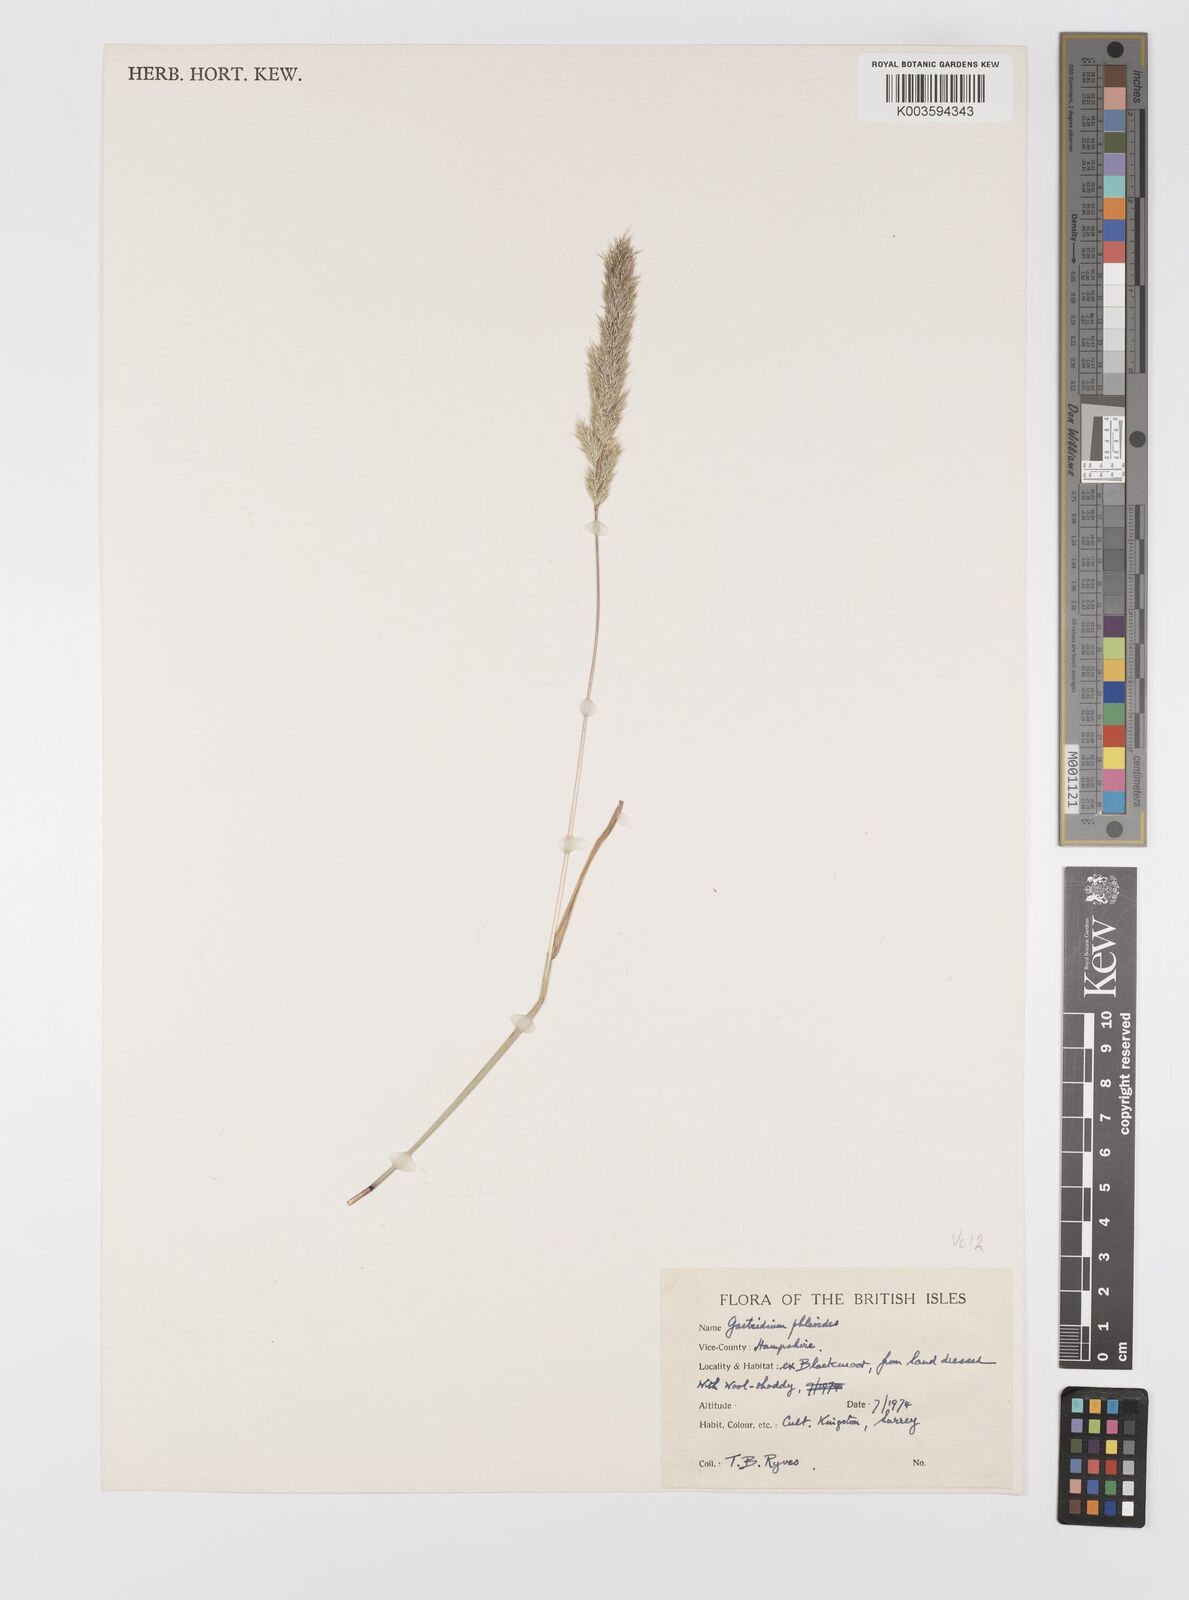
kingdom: Plantae
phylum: Tracheophyta
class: Liliopsida
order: Poales
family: Poaceae
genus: Gastridium
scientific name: Gastridium phleoides
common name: Nit grass
